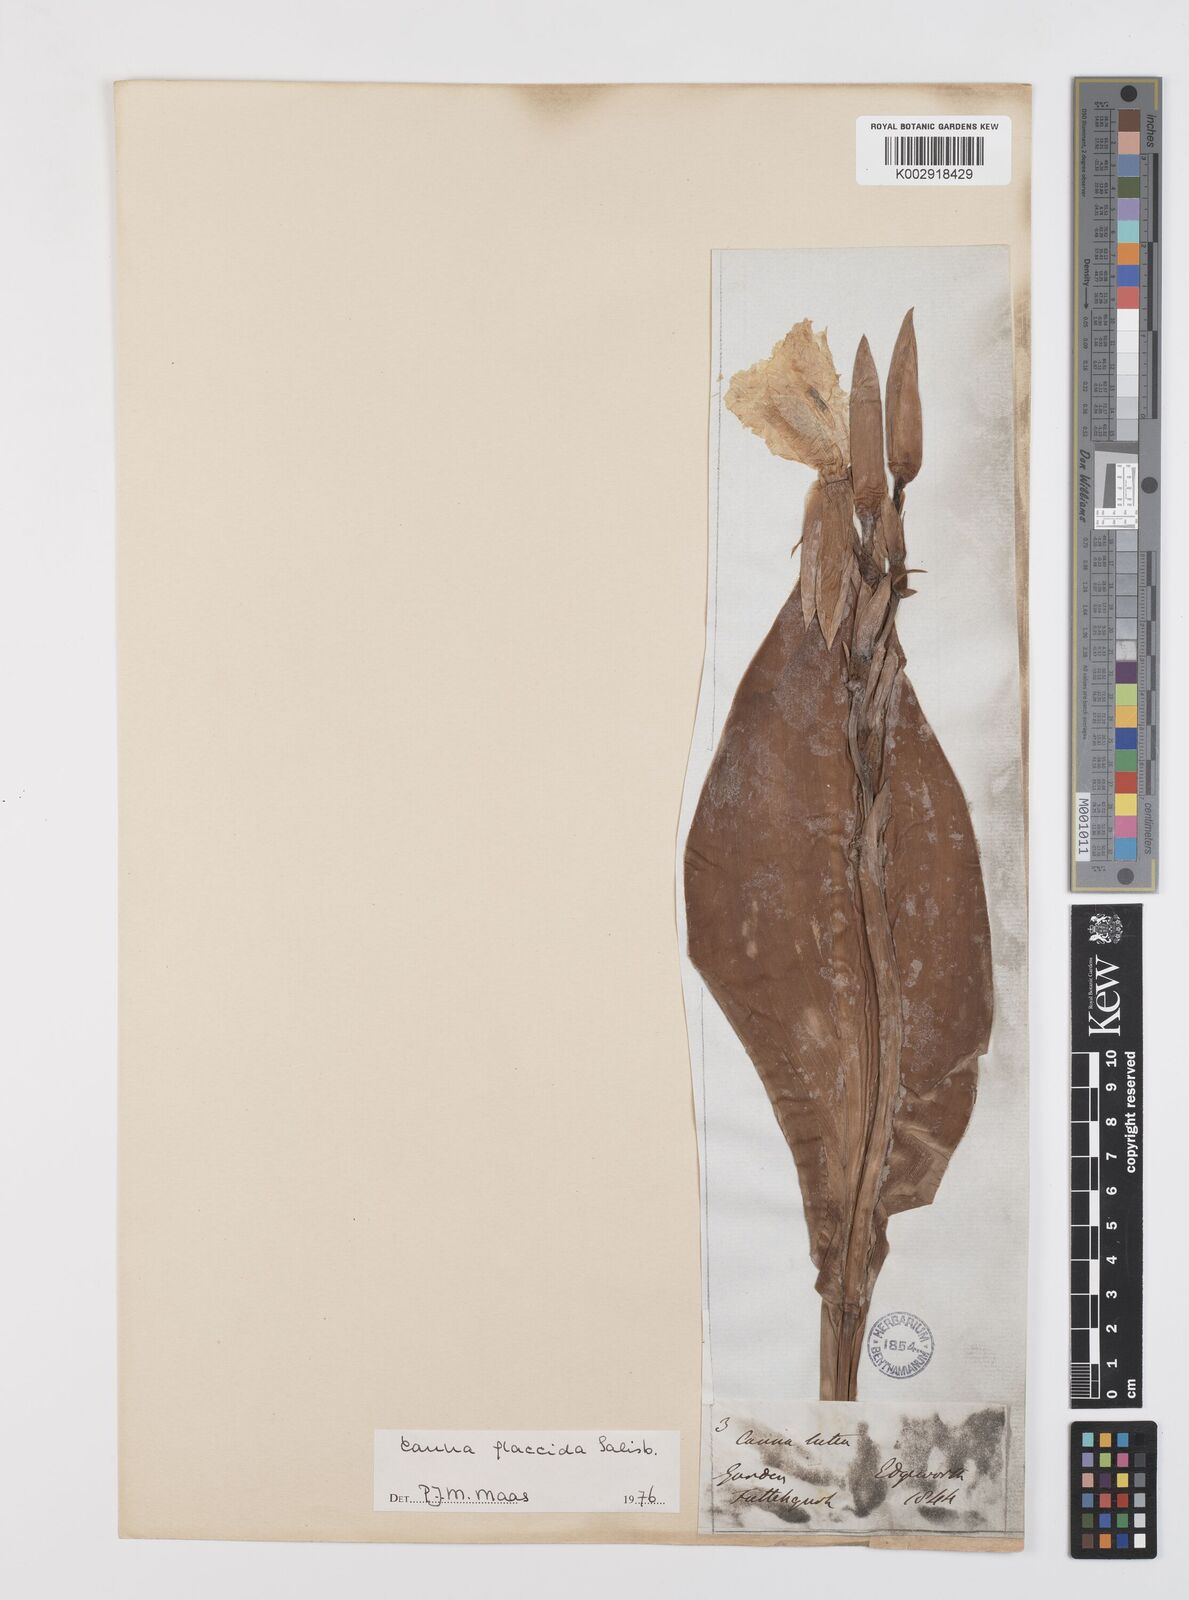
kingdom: Plantae
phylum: Tracheophyta
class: Liliopsida
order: Zingiberales
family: Cannaceae
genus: Canna
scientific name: Canna flaccida
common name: Bandana-of-the-everglades
